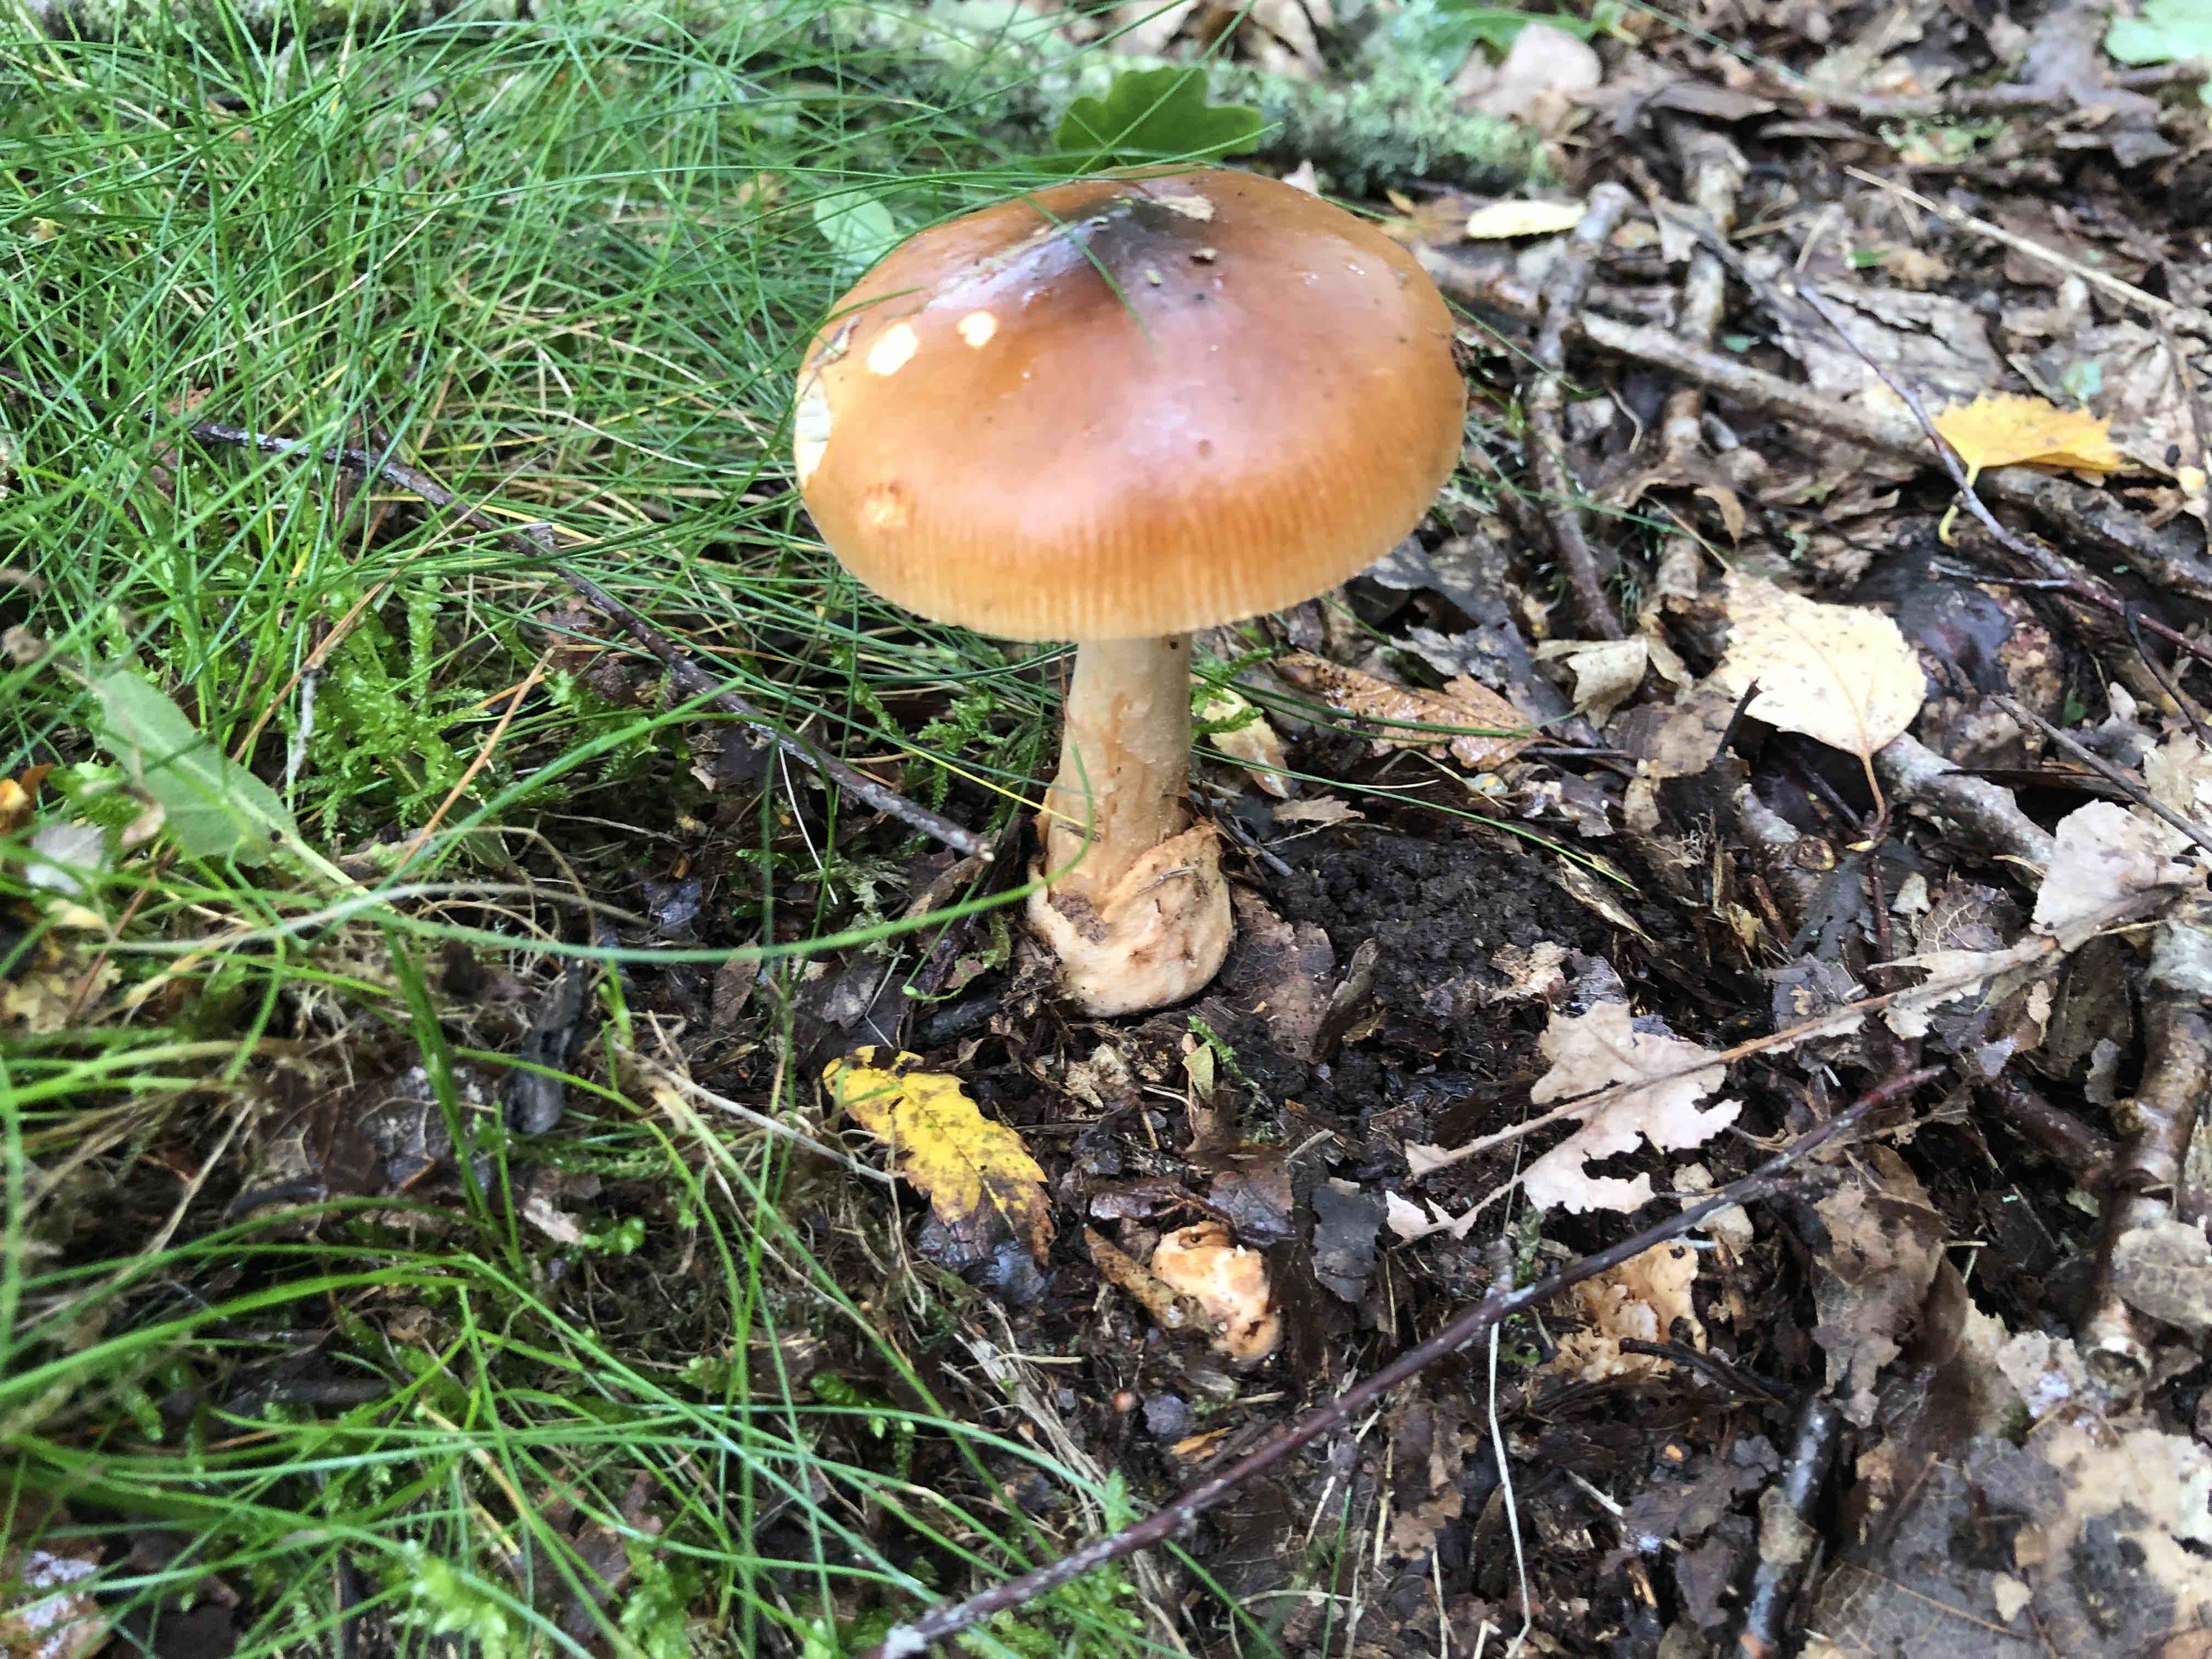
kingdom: Fungi
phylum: Basidiomycota
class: Agaricomycetes
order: Agaricales
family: Amanitaceae
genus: Amanita
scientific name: Amanita fulva
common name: brun kam-fluesvamp
